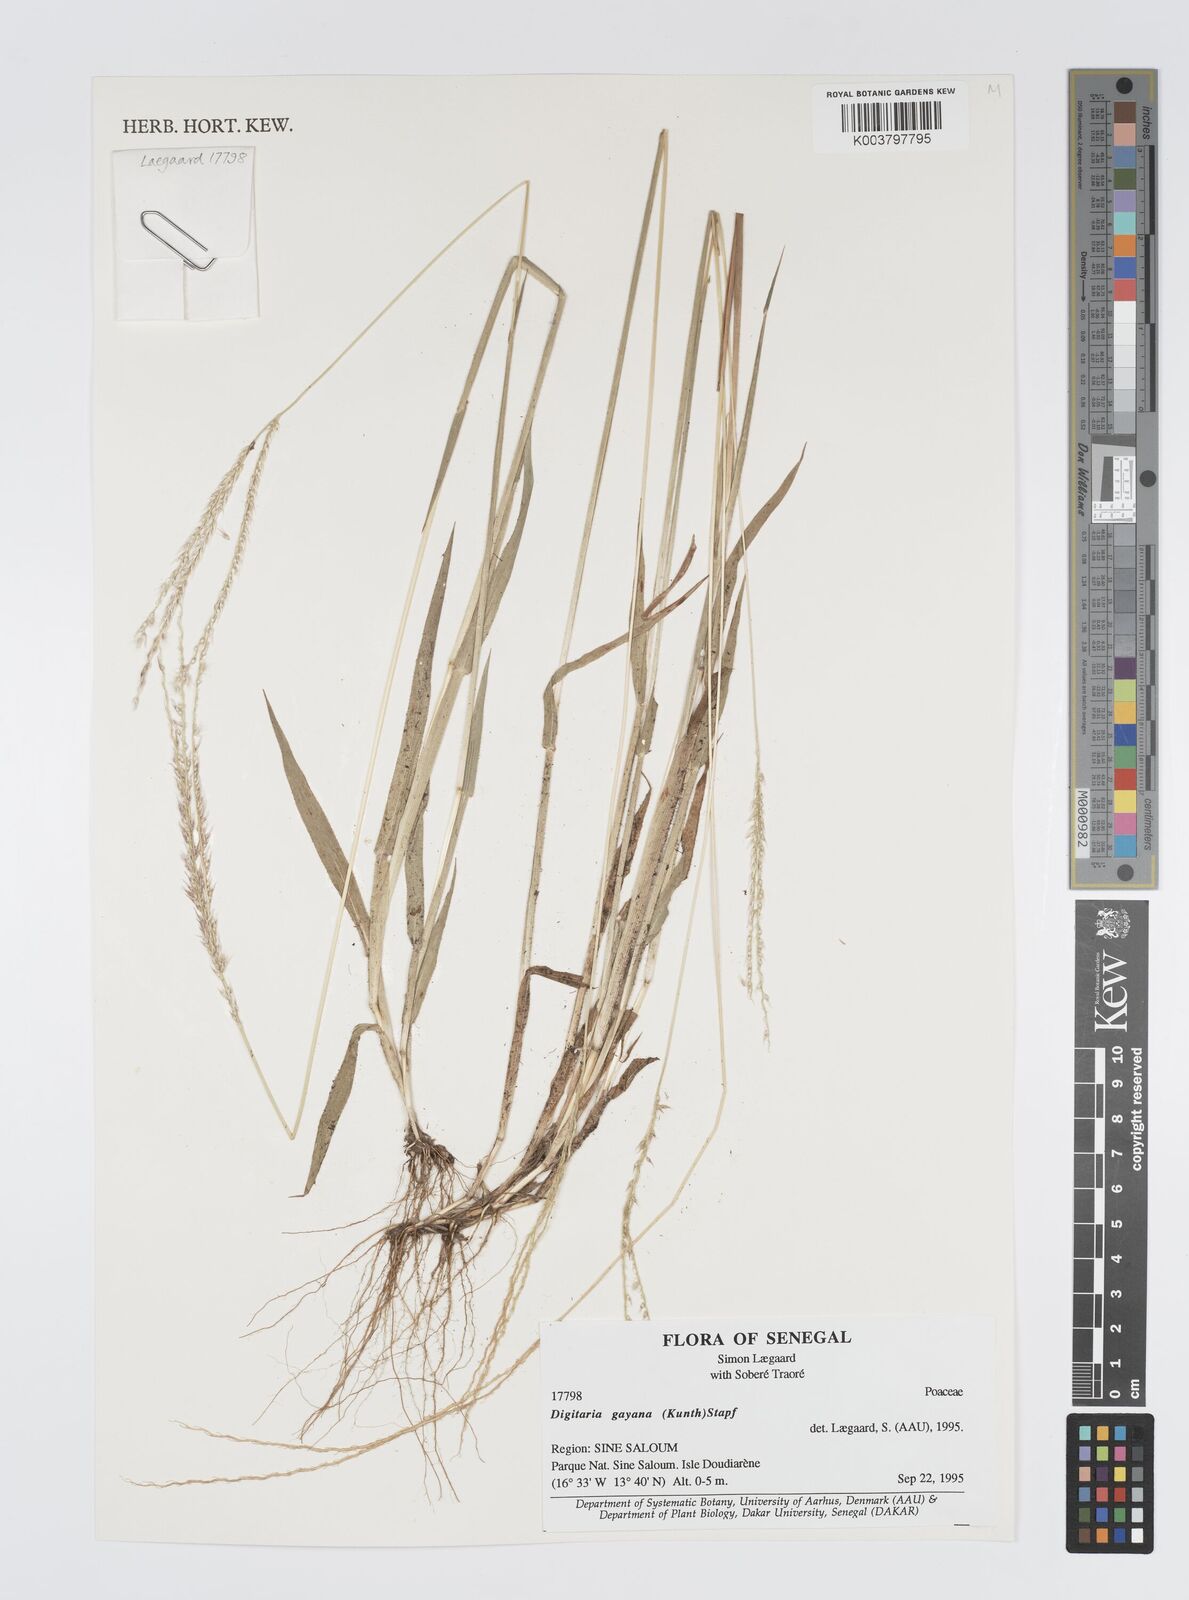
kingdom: Plantae
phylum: Tracheophyta
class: Liliopsida
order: Poales
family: Poaceae
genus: Digitaria
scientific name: Digitaria gayana
